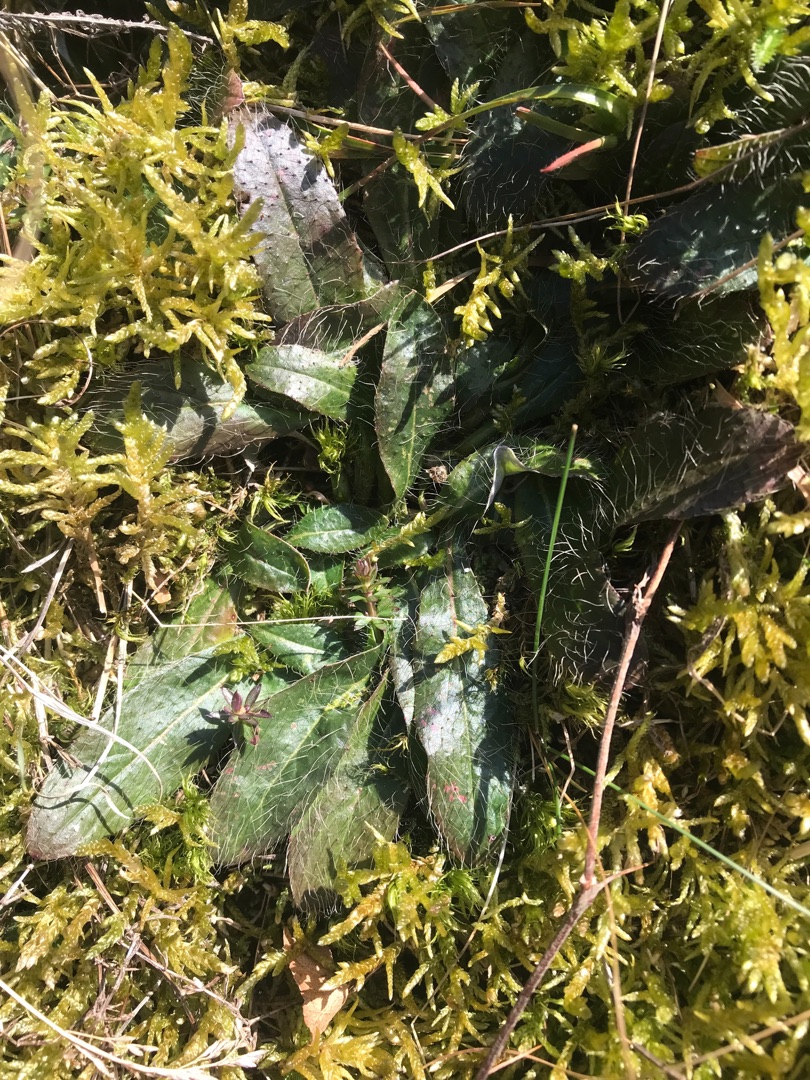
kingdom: Plantae
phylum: Tracheophyta
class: Magnoliopsida
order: Asterales
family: Asteraceae
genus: Pilosella
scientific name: Pilosella officinarum
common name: Håret høgeurt
